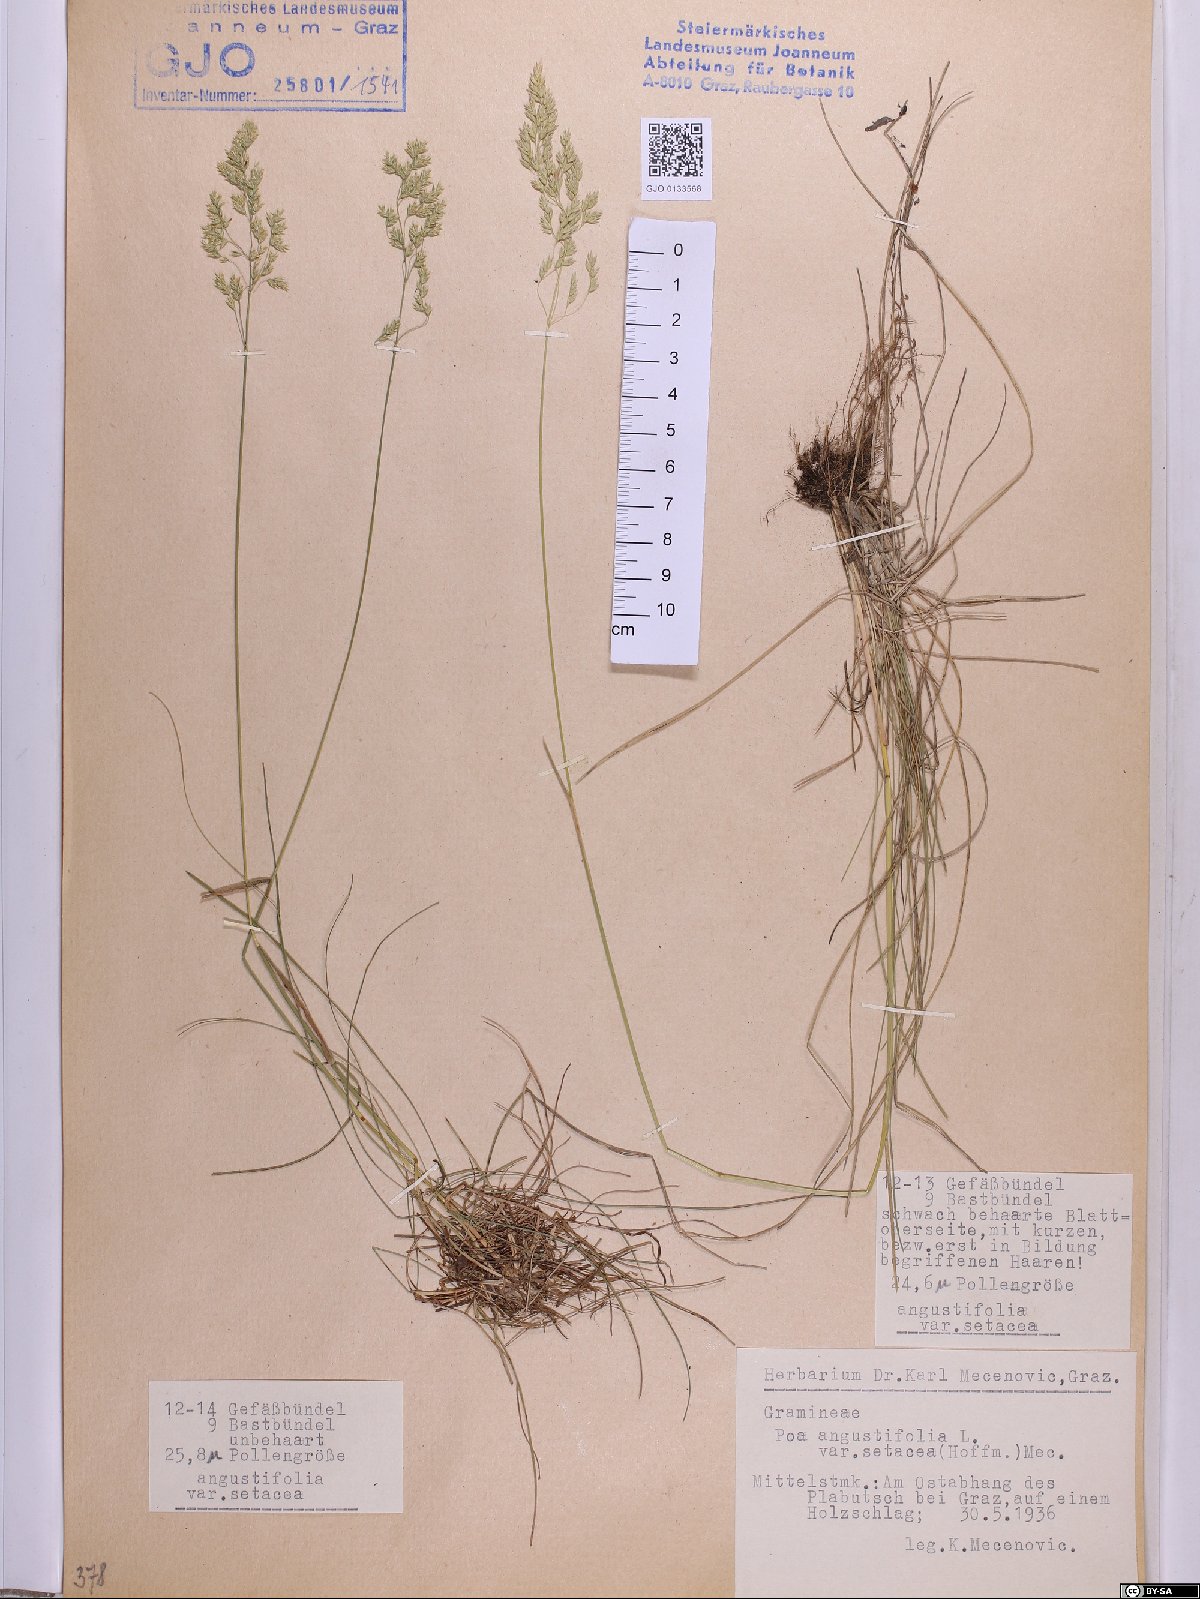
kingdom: Plantae
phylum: Tracheophyta
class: Liliopsida
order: Poales
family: Poaceae
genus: Poa
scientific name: Poa angustifolia
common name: Narrow-leaved meadow-grass
